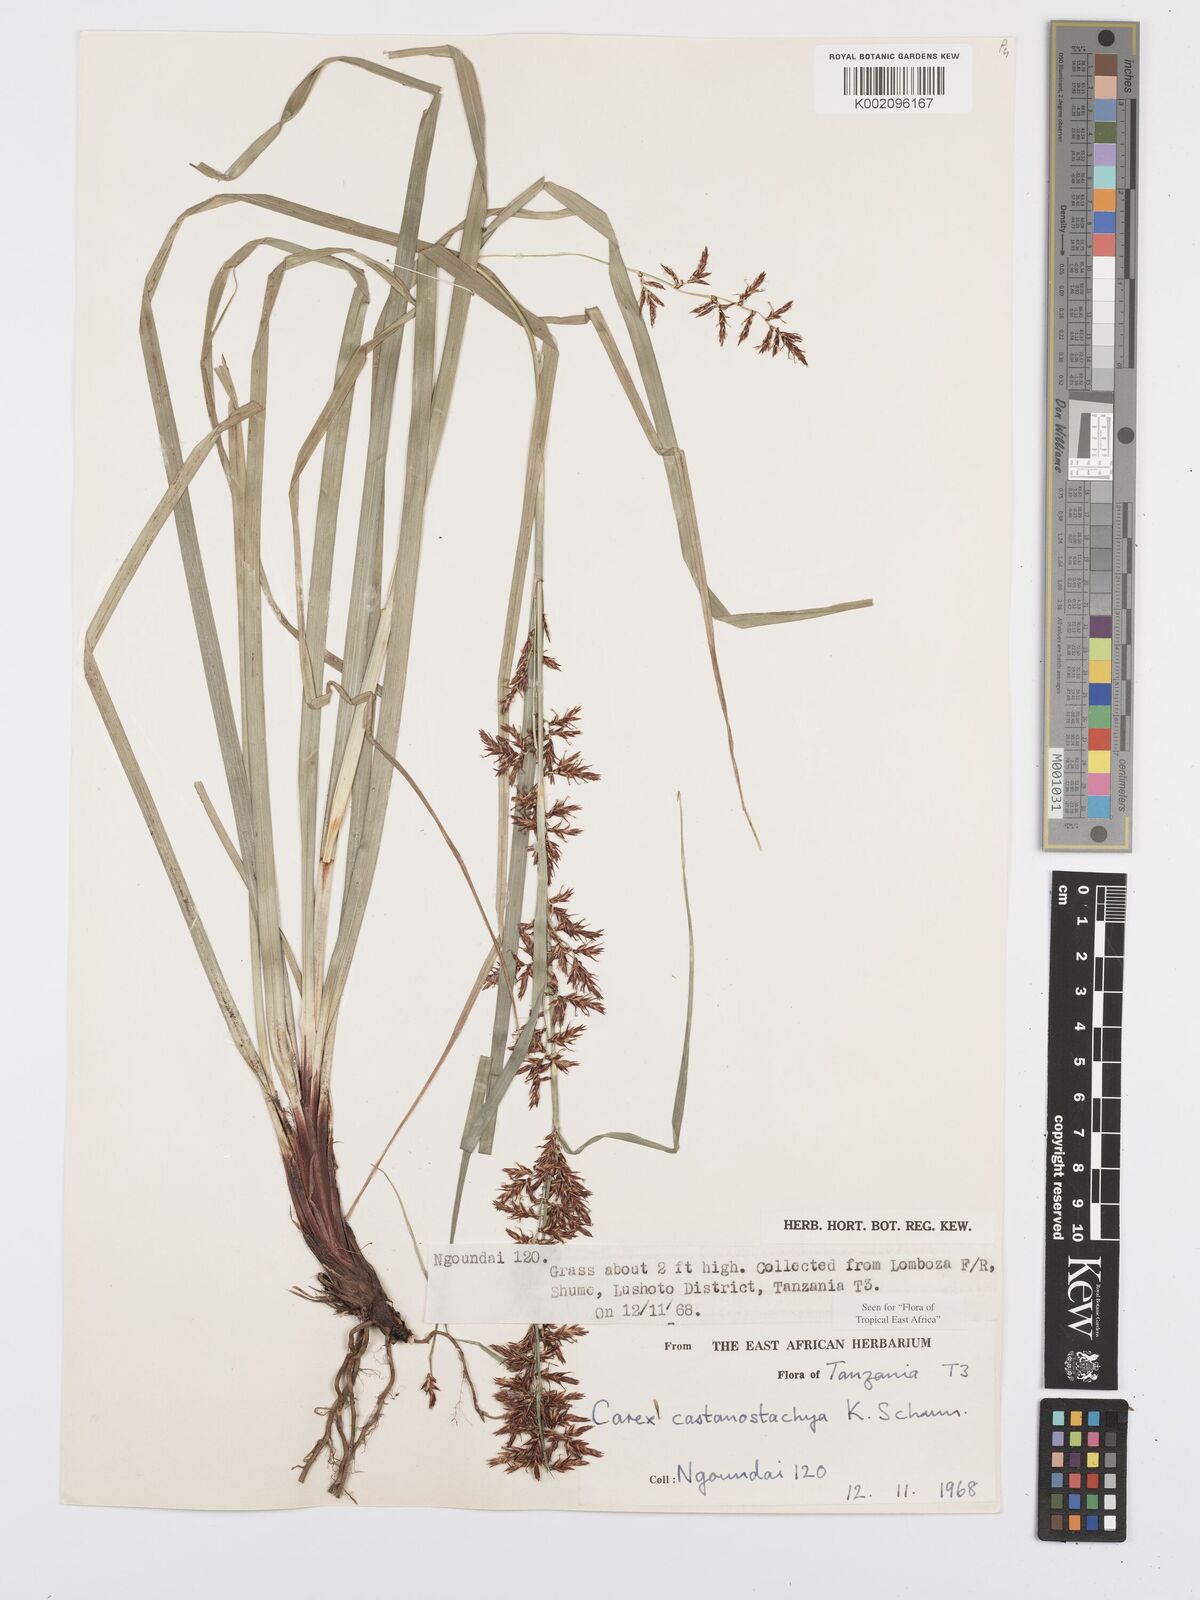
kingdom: Plantae
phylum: Tracheophyta
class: Liliopsida
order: Poales
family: Cyperaceae
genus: Carex
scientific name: Carex castanostachya
